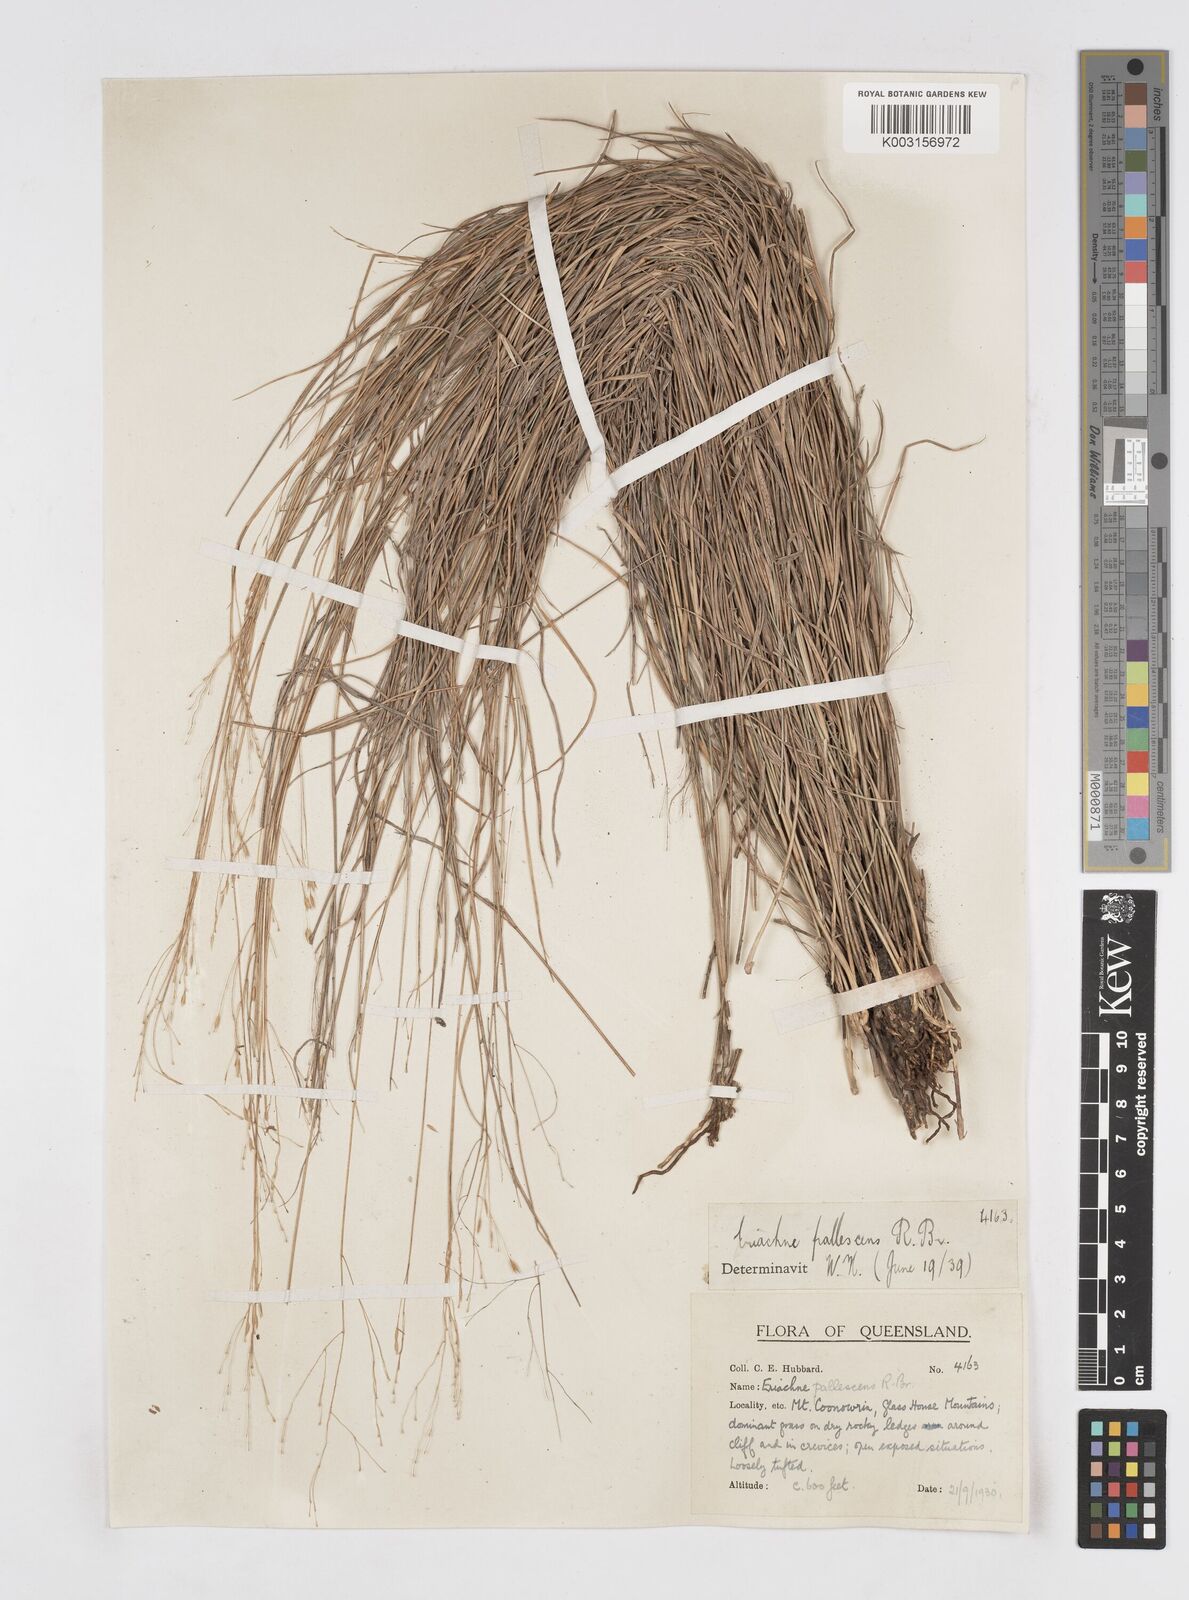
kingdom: Plantae
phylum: Tracheophyta
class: Liliopsida
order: Poales
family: Poaceae
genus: Eriachne
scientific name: Eriachne pallescens
